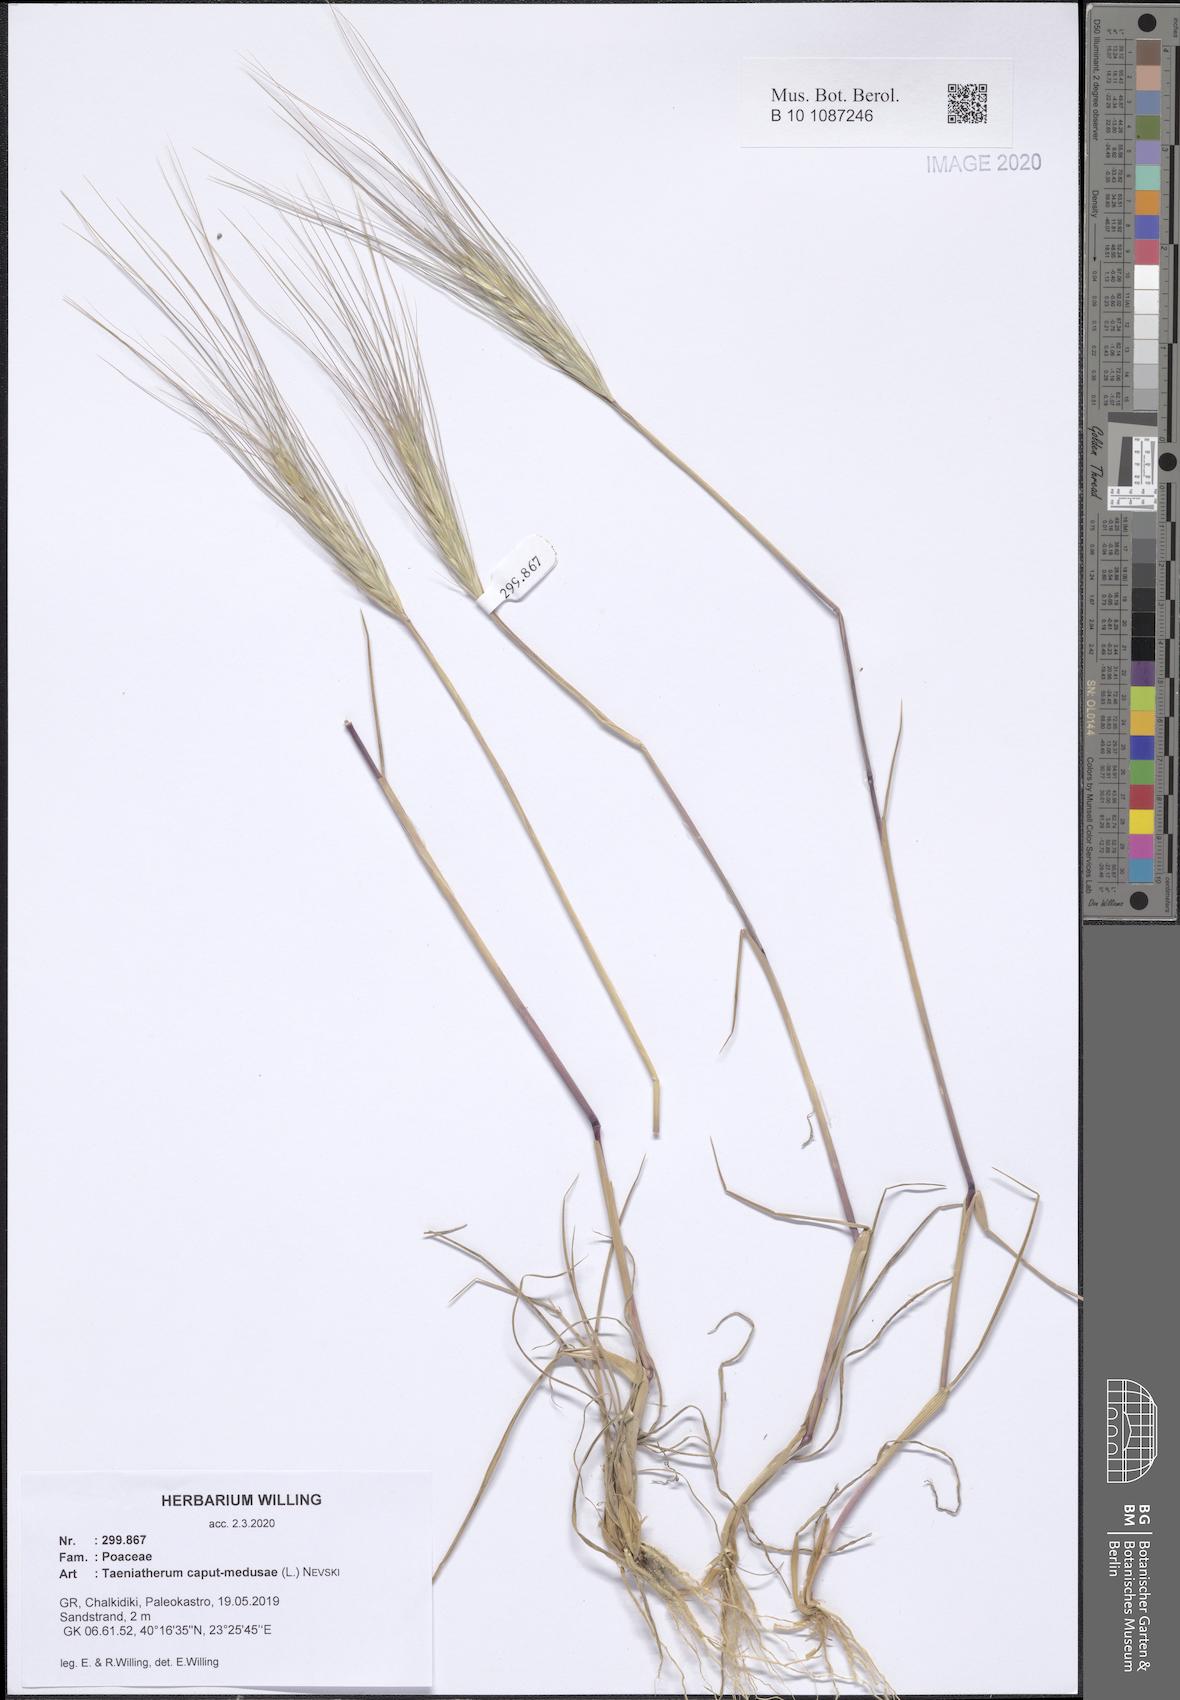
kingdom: Plantae
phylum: Tracheophyta
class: Liliopsida
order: Poales
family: Poaceae
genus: Taeniatherum
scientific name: Taeniatherum caput-medusae
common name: Medusahead
